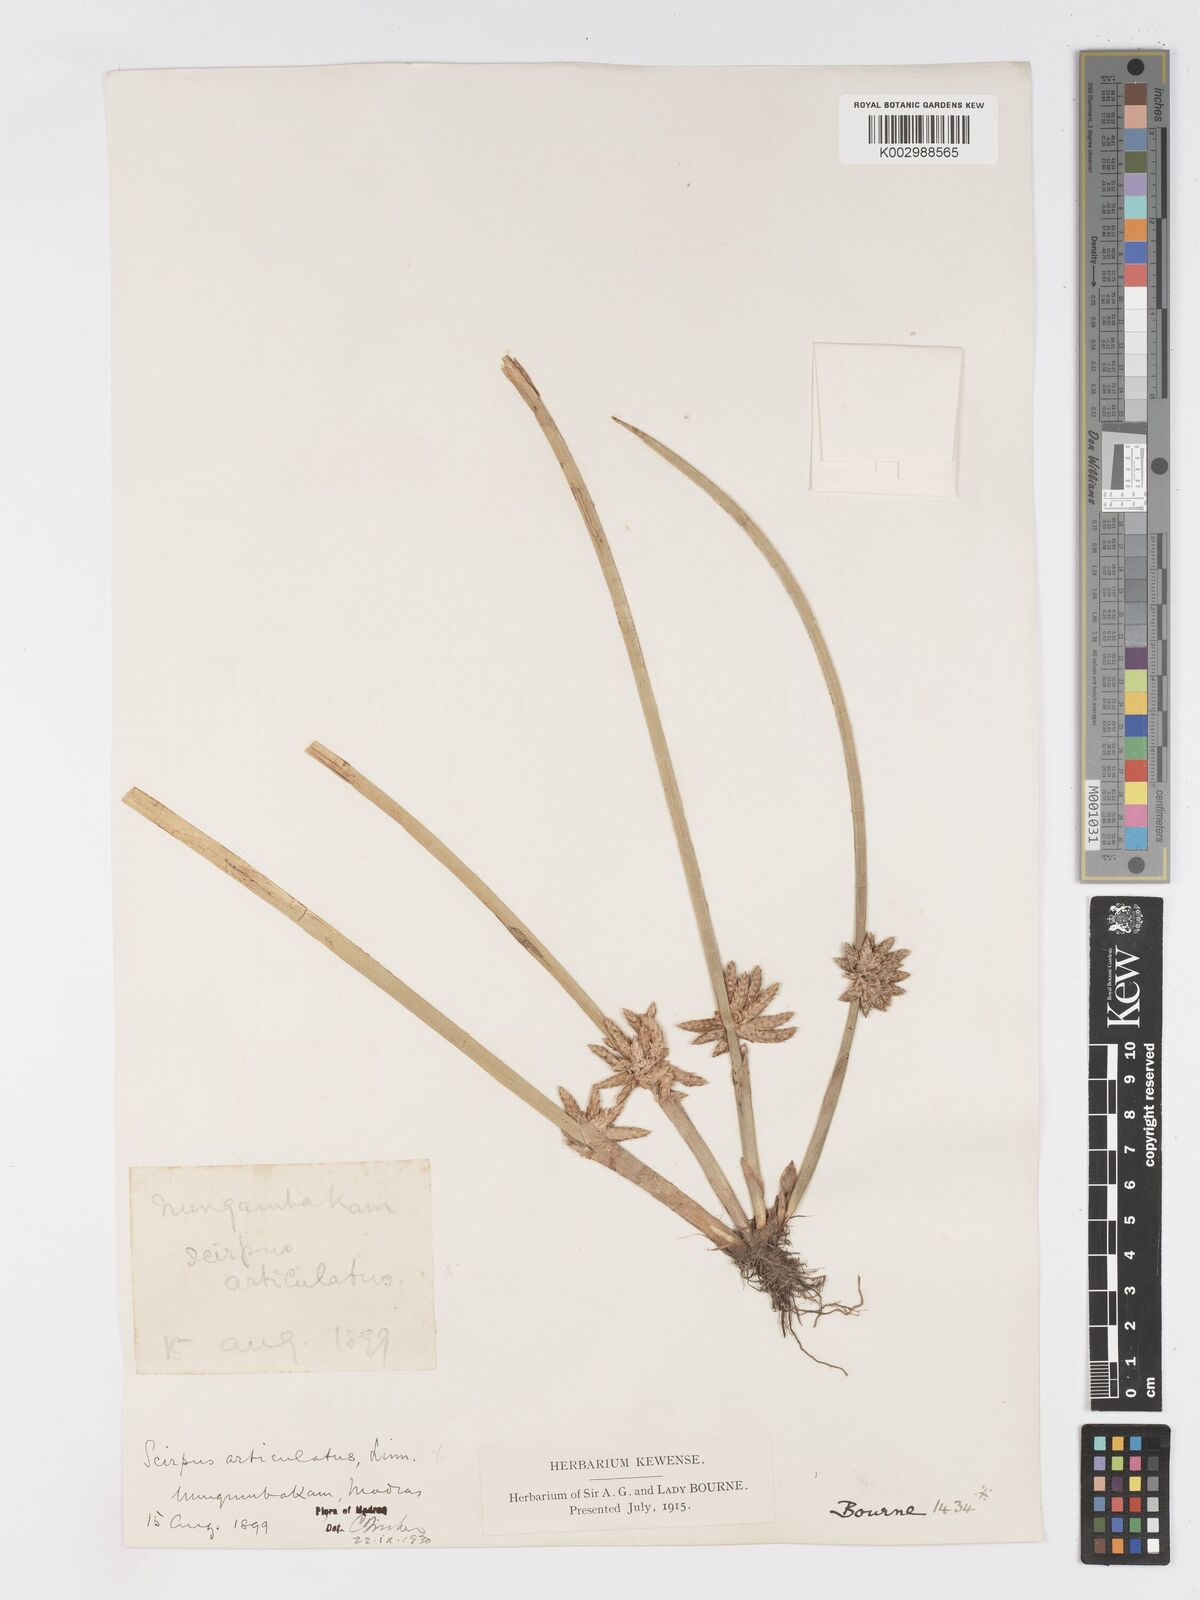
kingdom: Plantae
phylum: Tracheophyta
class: Liliopsida
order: Poales
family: Cyperaceae
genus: Schoenoplectiella
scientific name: Schoenoplectiella articulata
